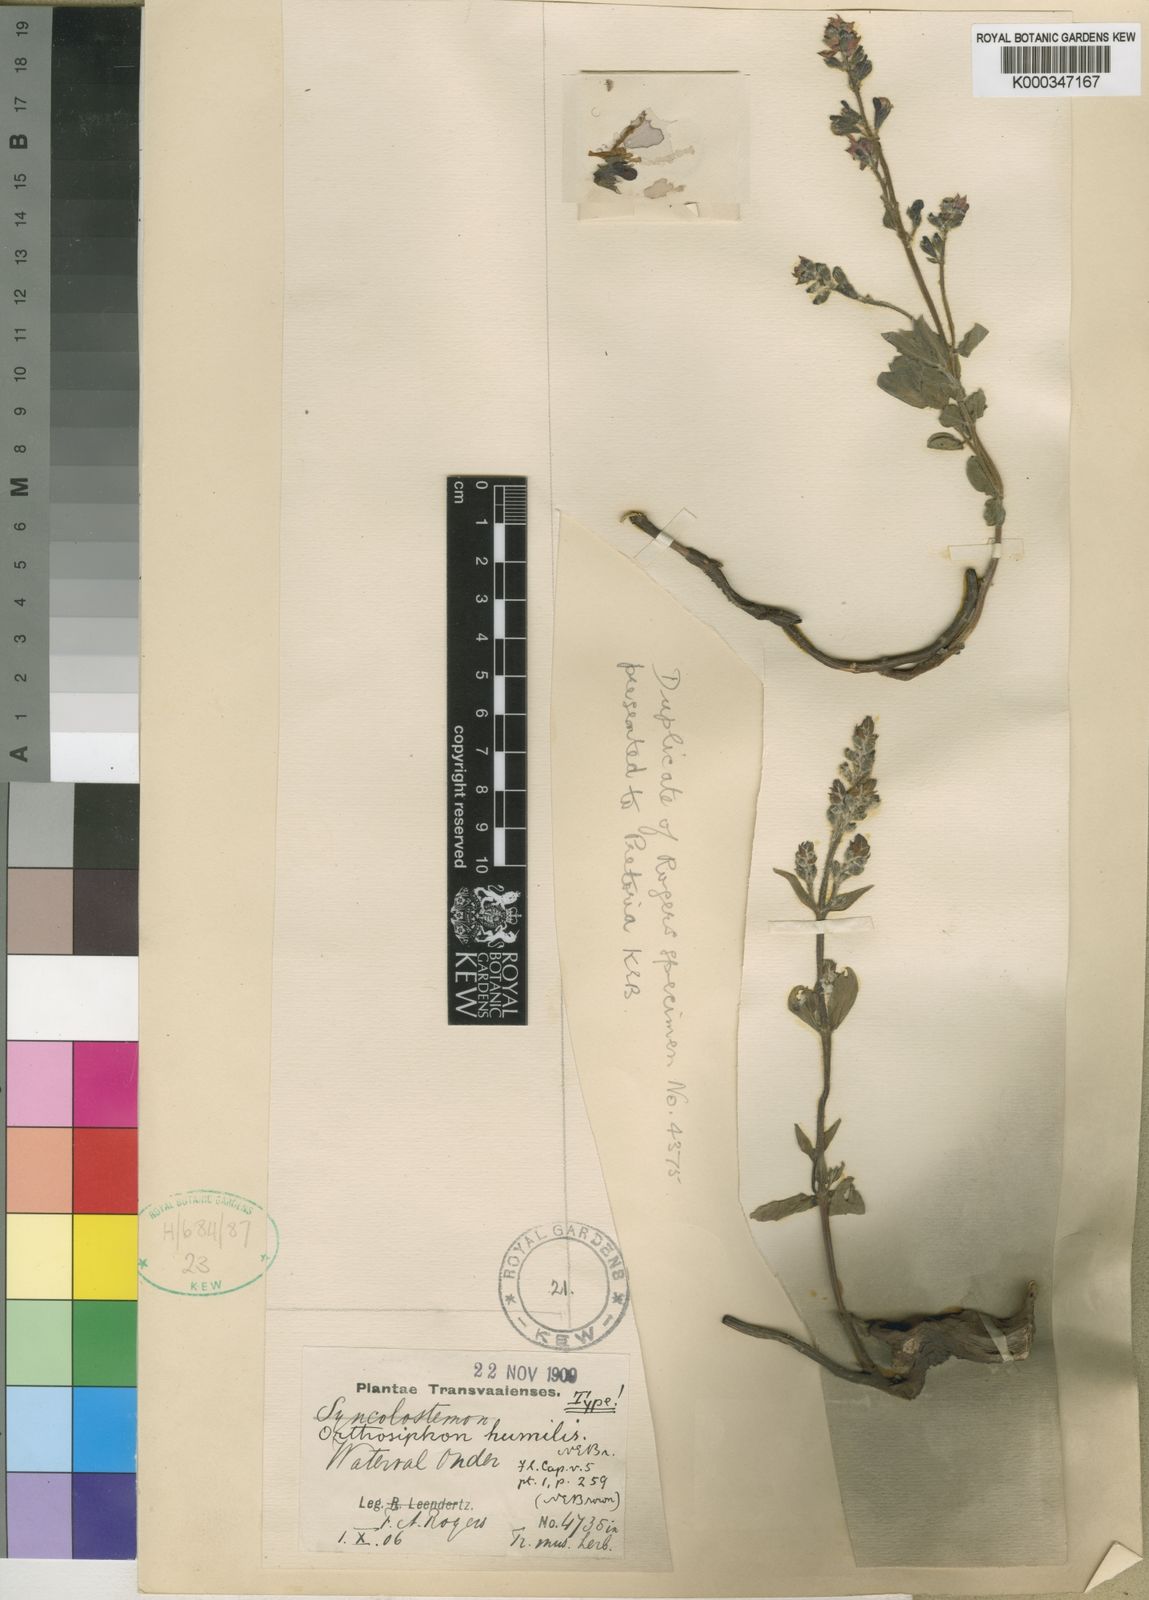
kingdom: Plantae
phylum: Tracheophyta
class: Magnoliopsida
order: Lamiales
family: Lamiaceae
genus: Syncolostemon
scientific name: Syncolostemon foliosus
